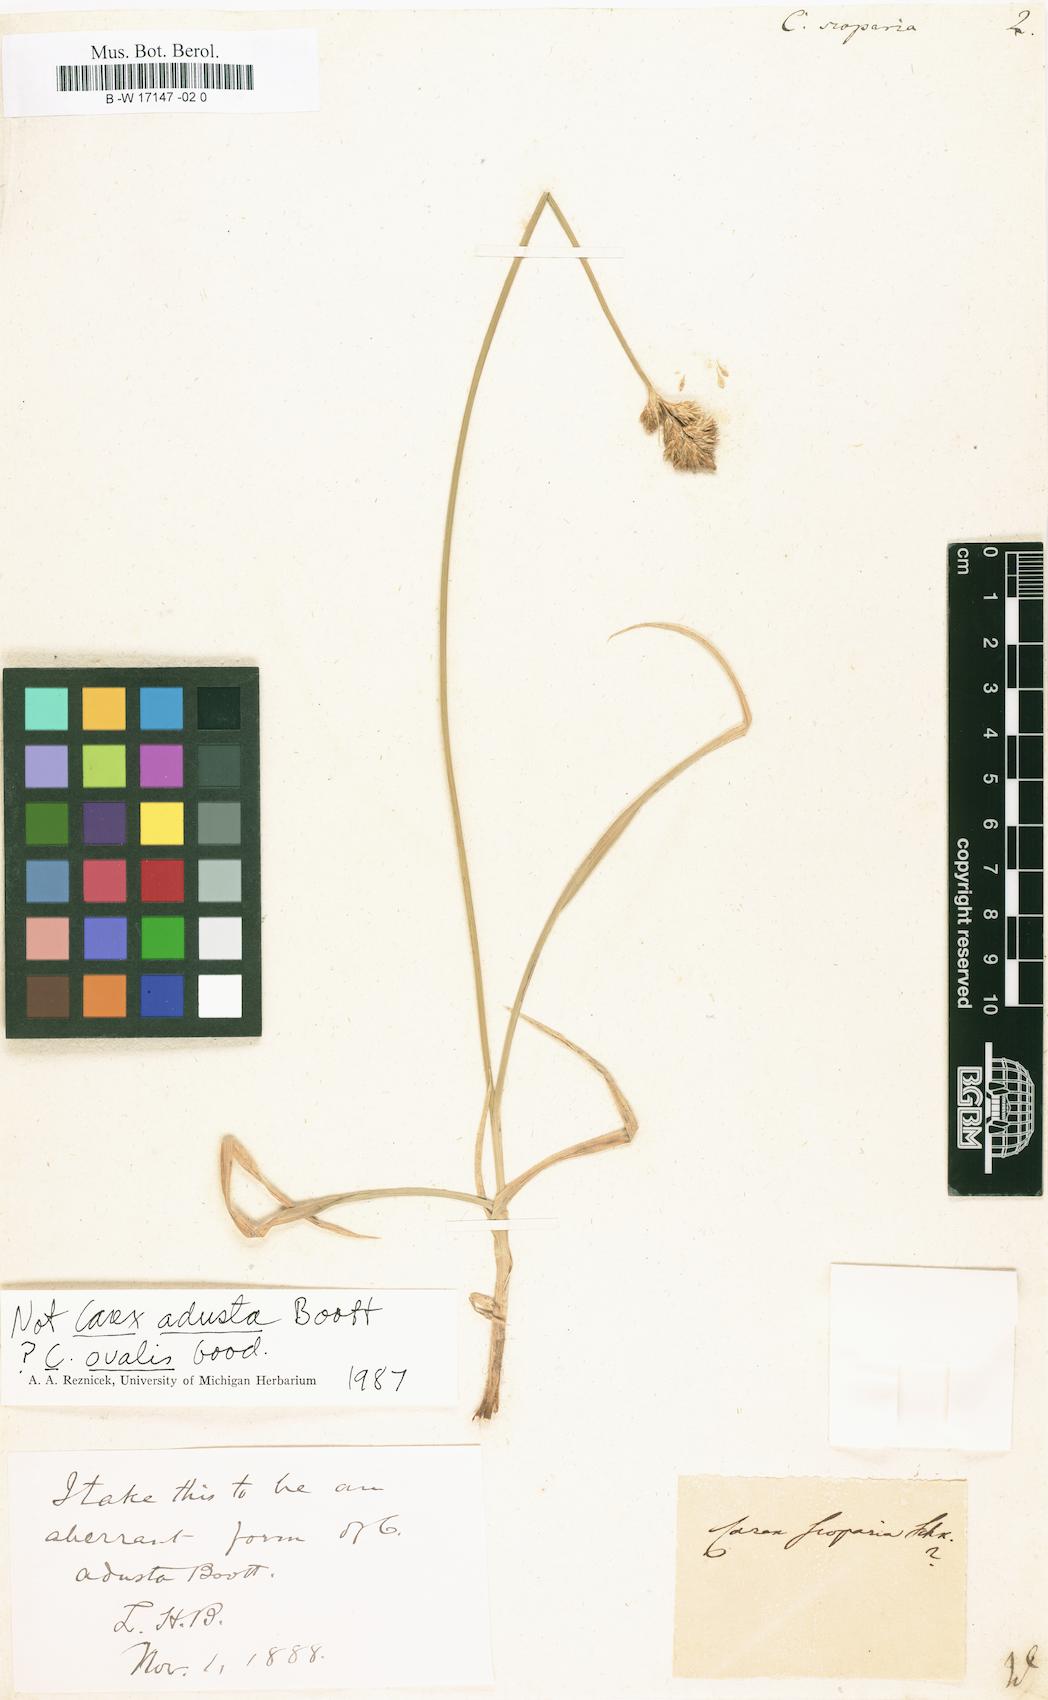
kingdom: Plantae
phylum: Tracheophyta
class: Liliopsida
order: Poales
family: Cyperaceae
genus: Carex
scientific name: Carex scoparia
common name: Broom sedge
